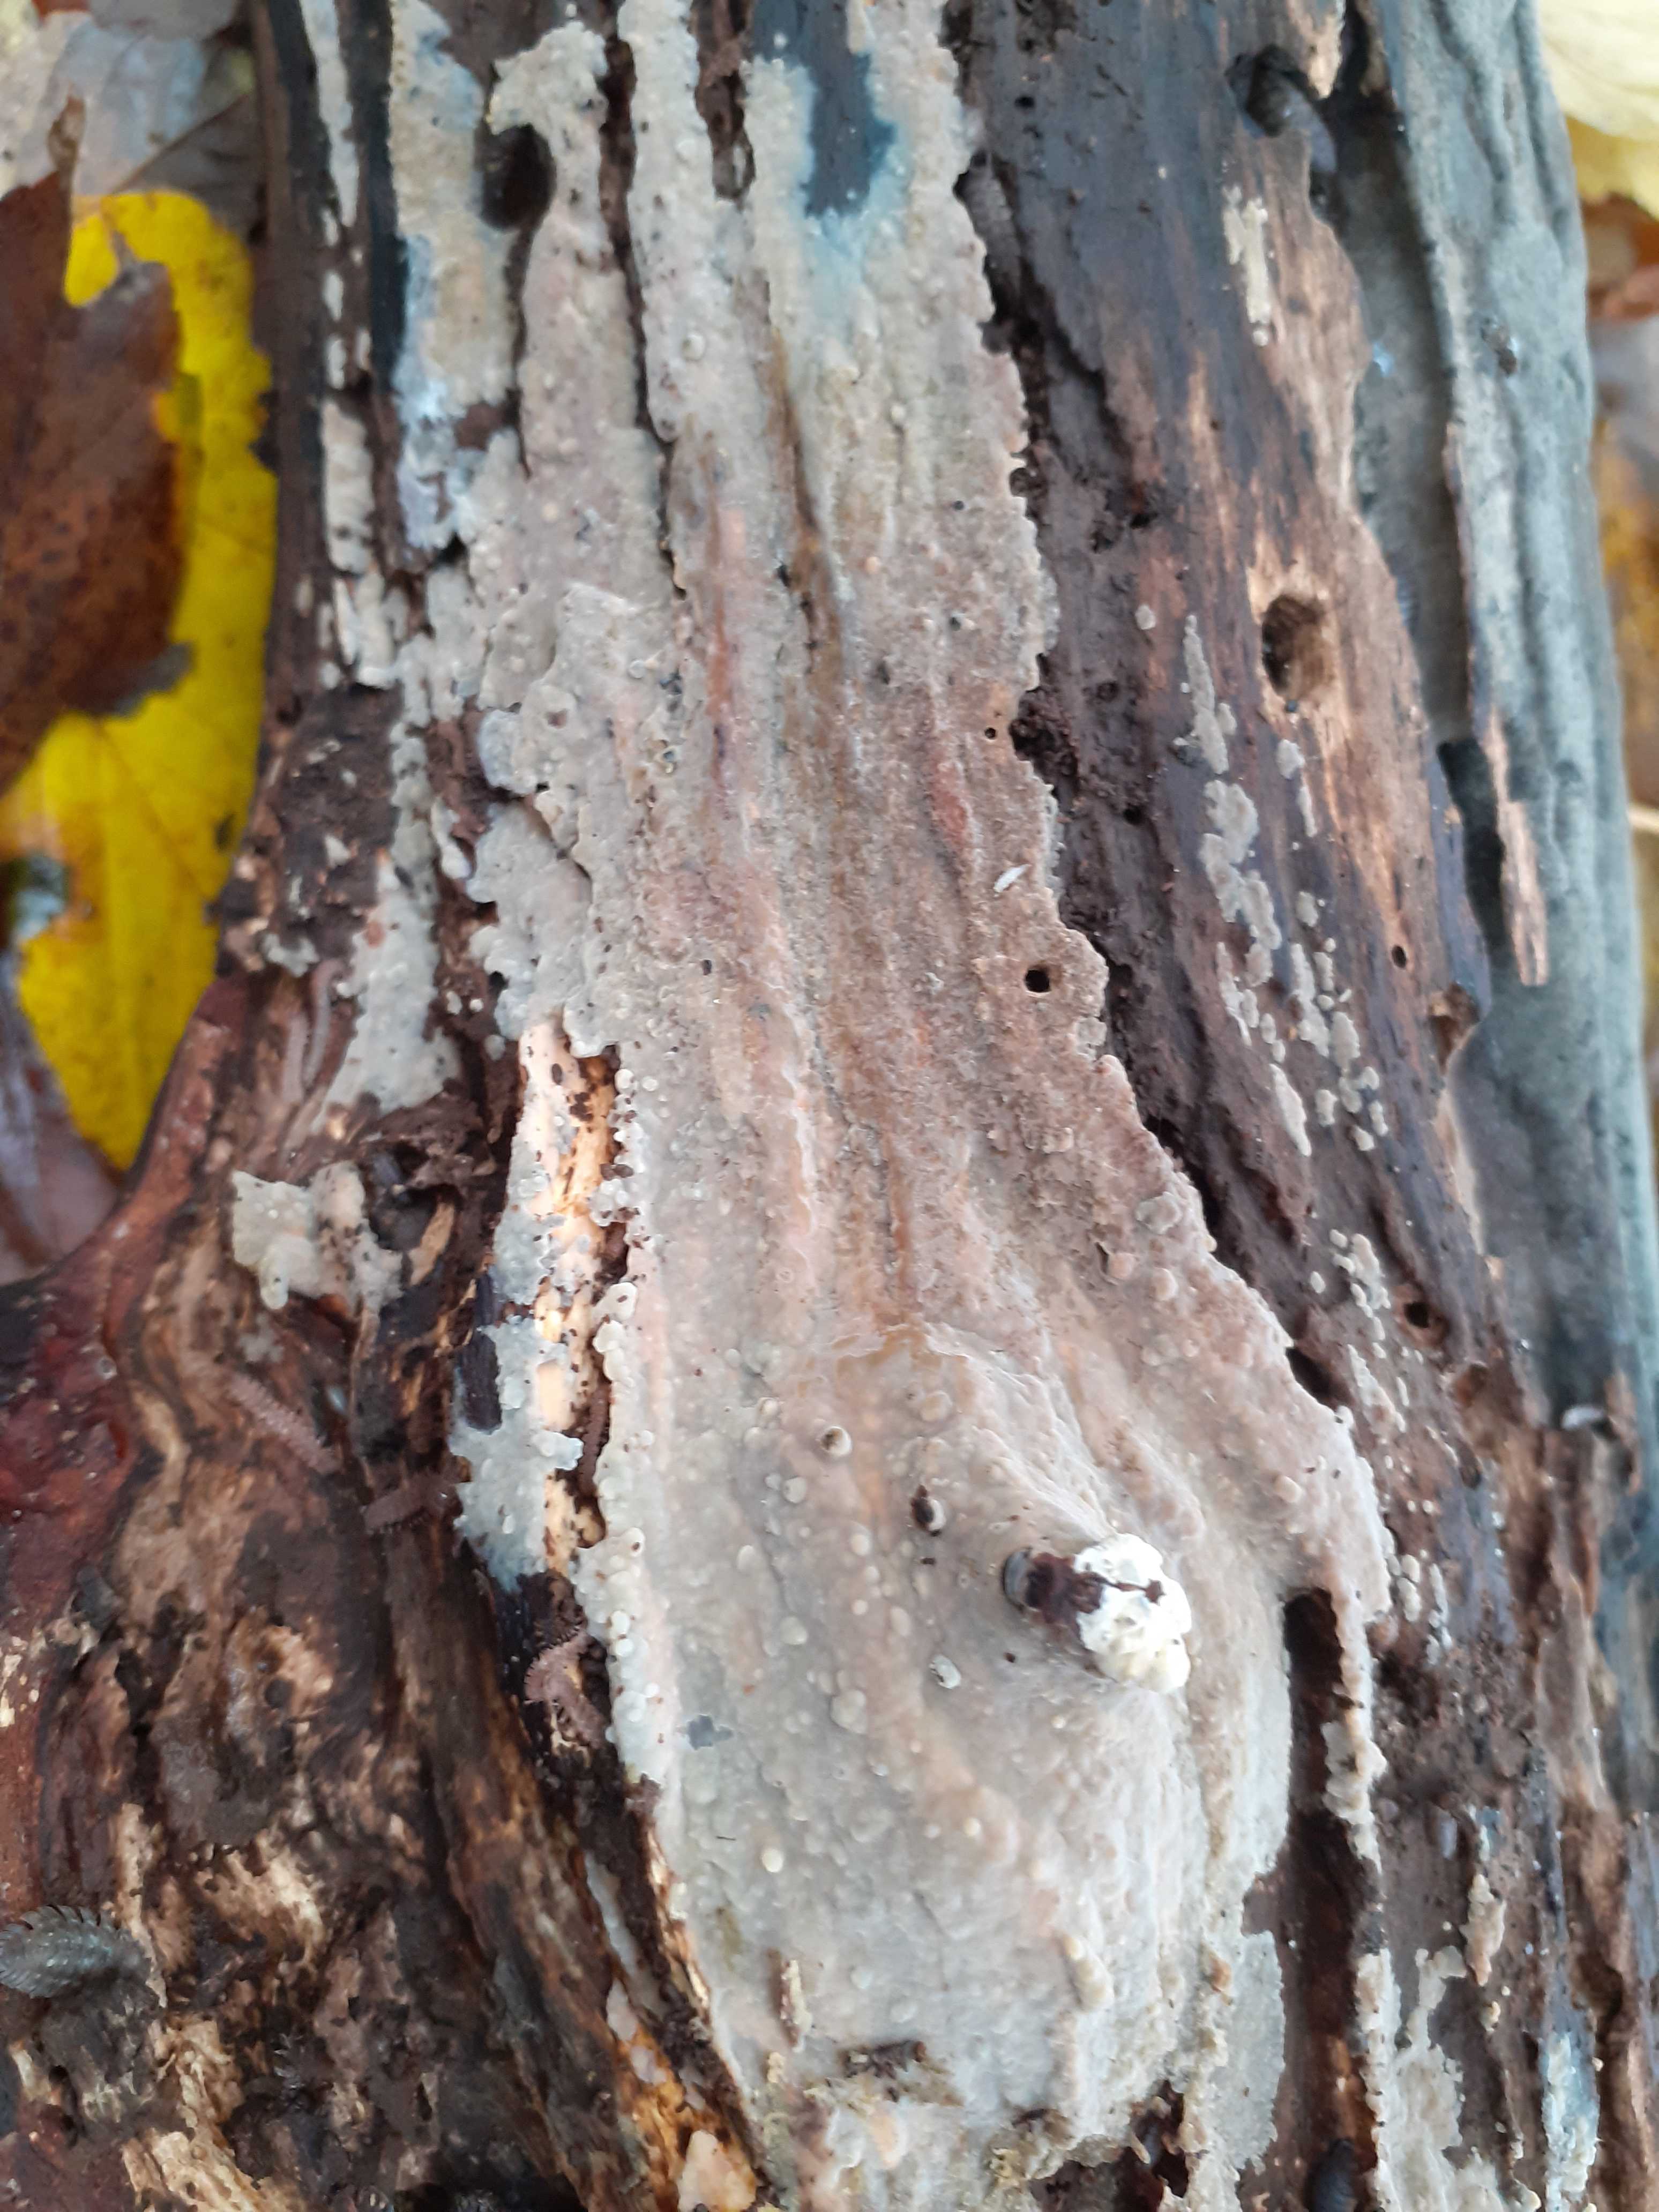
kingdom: Fungi
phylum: Basidiomycota
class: Agaricomycetes
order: Agaricales
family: Radulomycetaceae
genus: Radulomyces
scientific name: Radulomyces confluens
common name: glat naftalinskind
